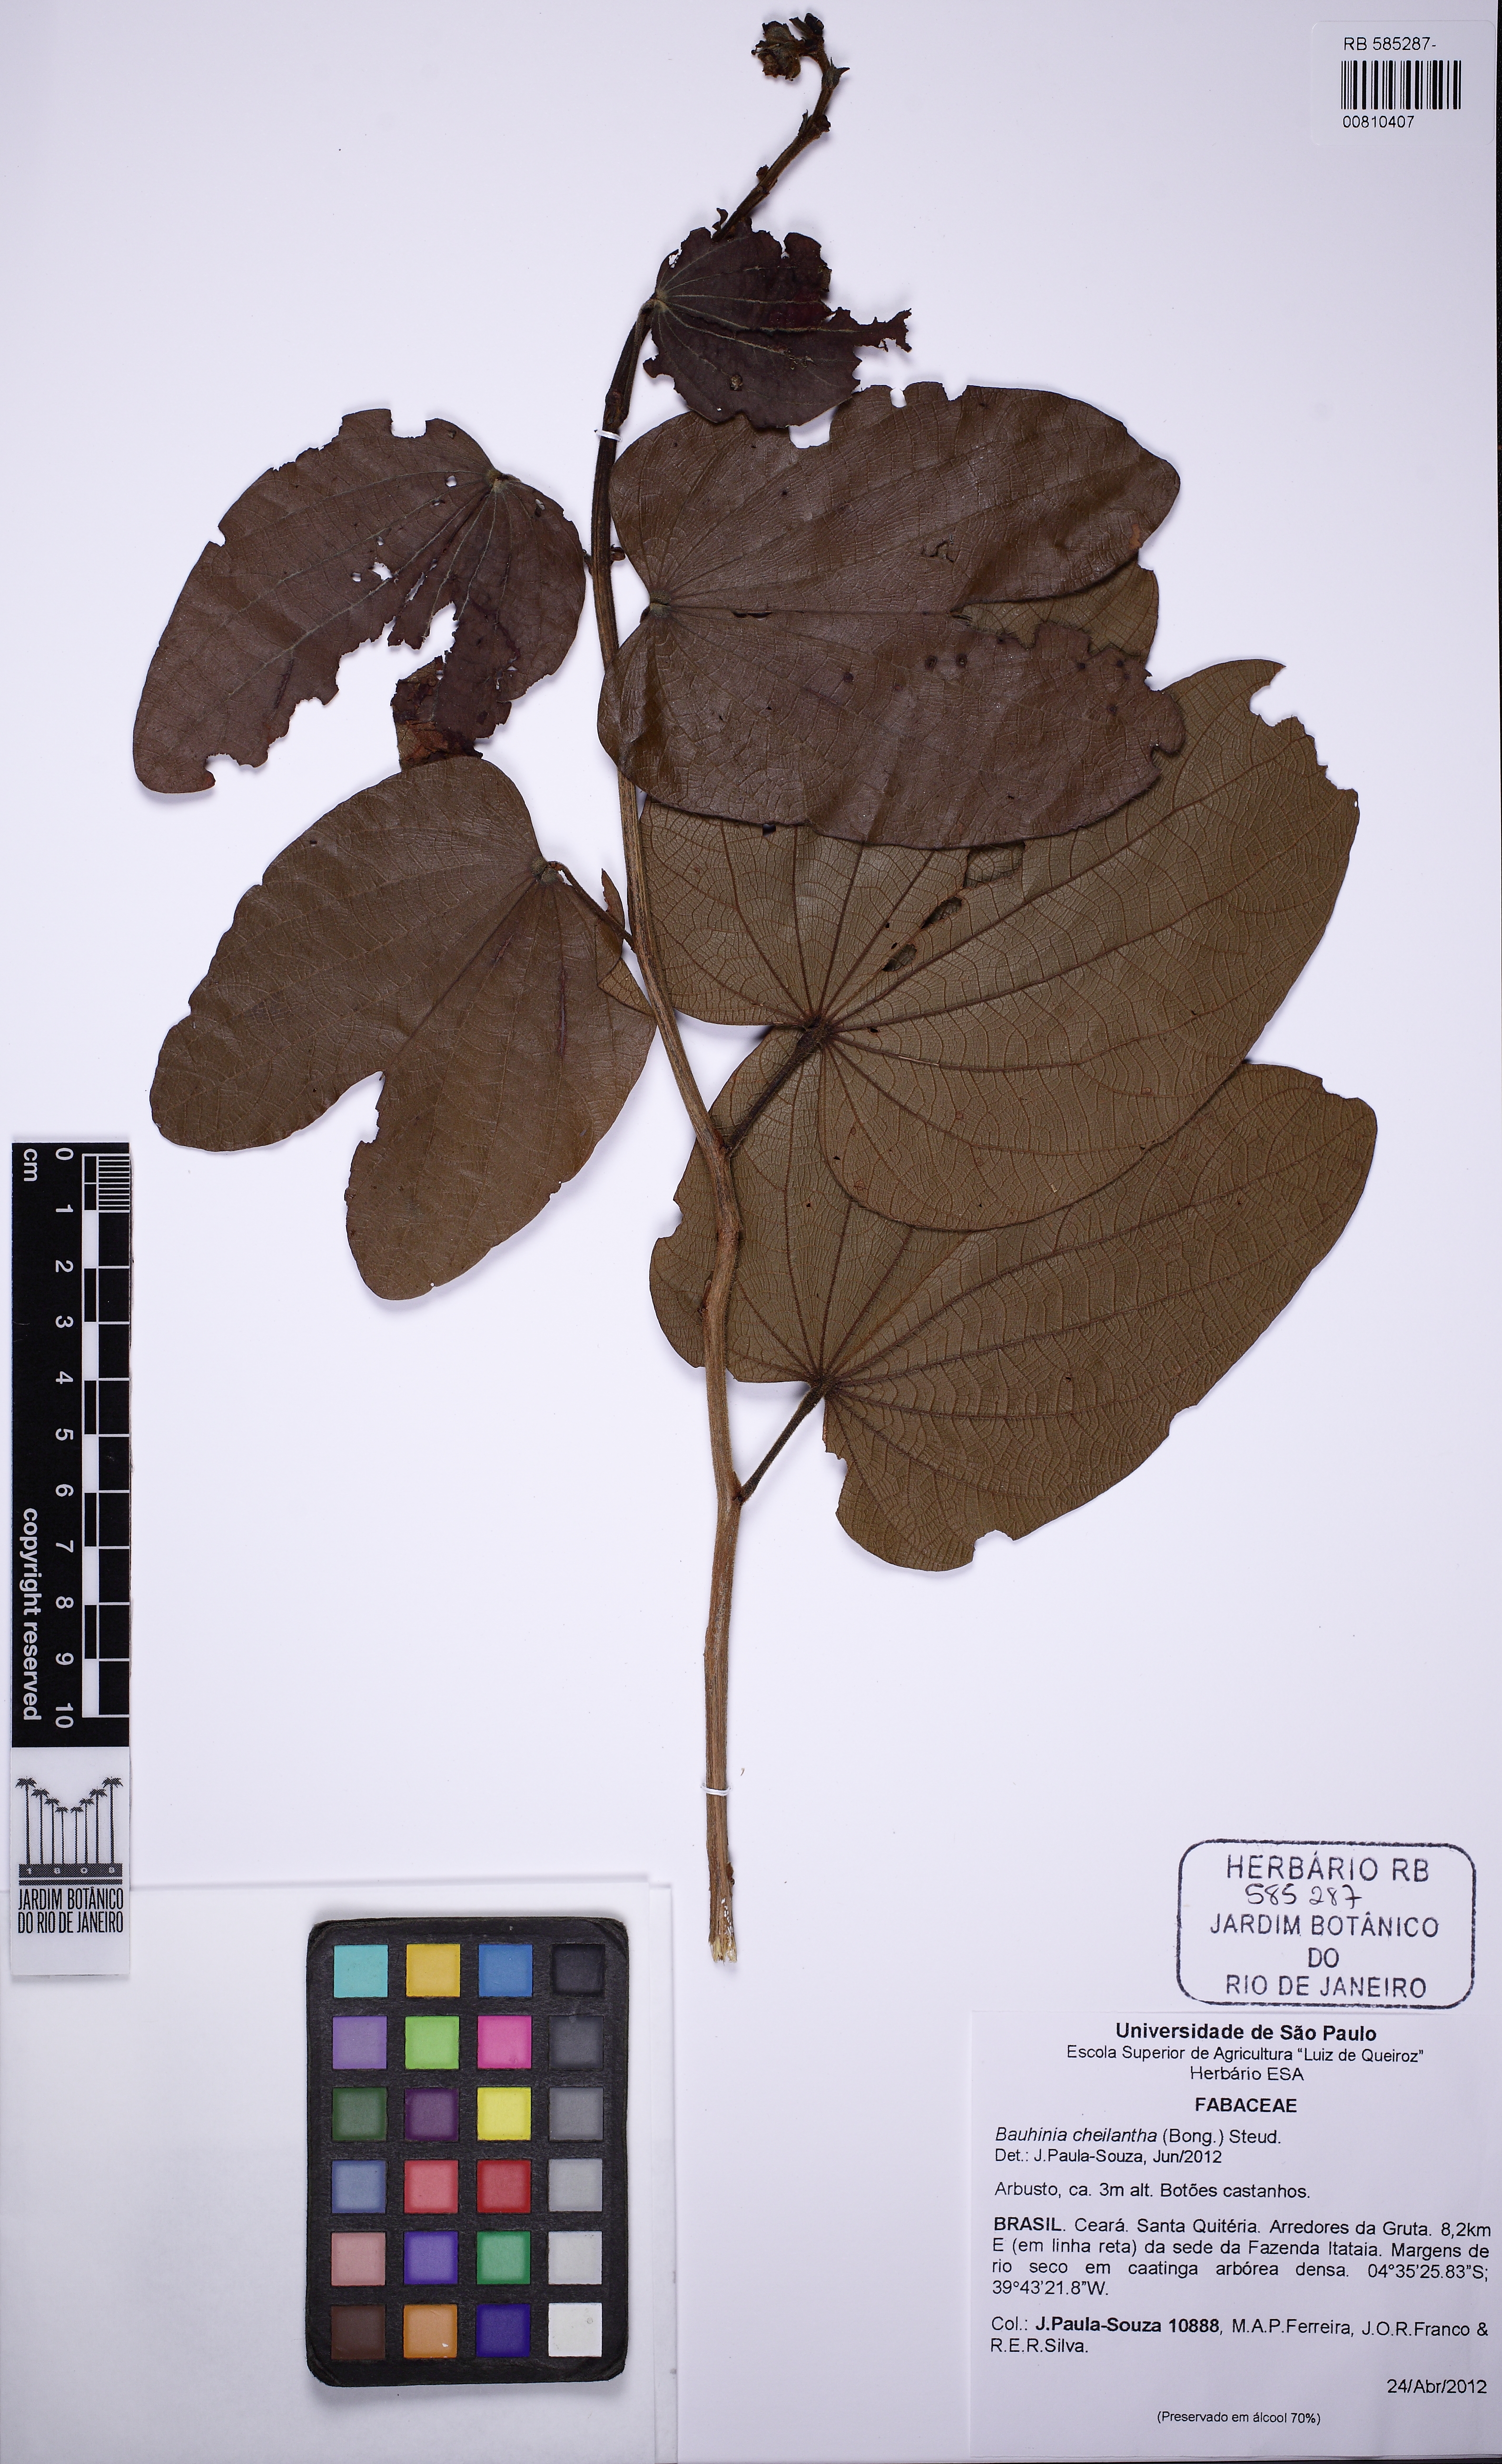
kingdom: Plantae
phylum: Tracheophyta
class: Magnoliopsida
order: Fabales
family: Fabaceae
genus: Bauhinia
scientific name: Bauhinia cheilantha
